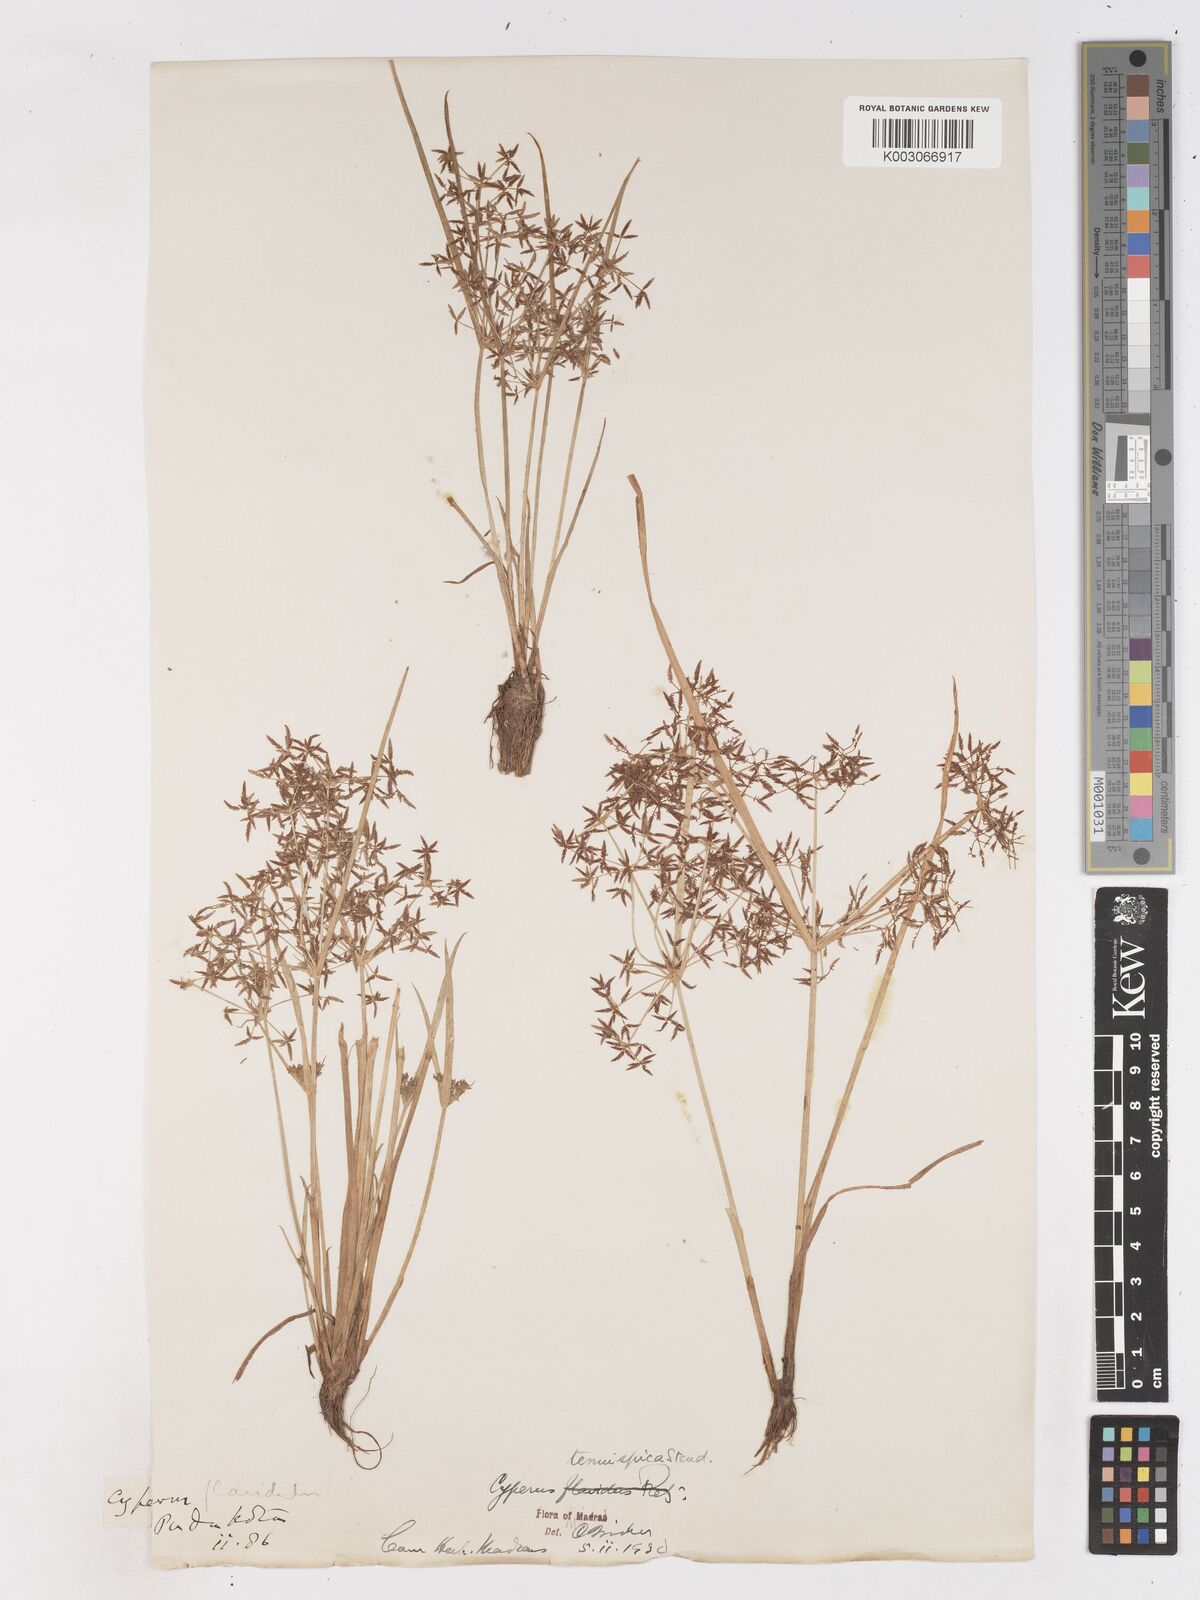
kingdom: Plantae
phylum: Tracheophyta
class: Liliopsida
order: Poales
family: Cyperaceae
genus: Cyperus
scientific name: Cyperus tenuispica
